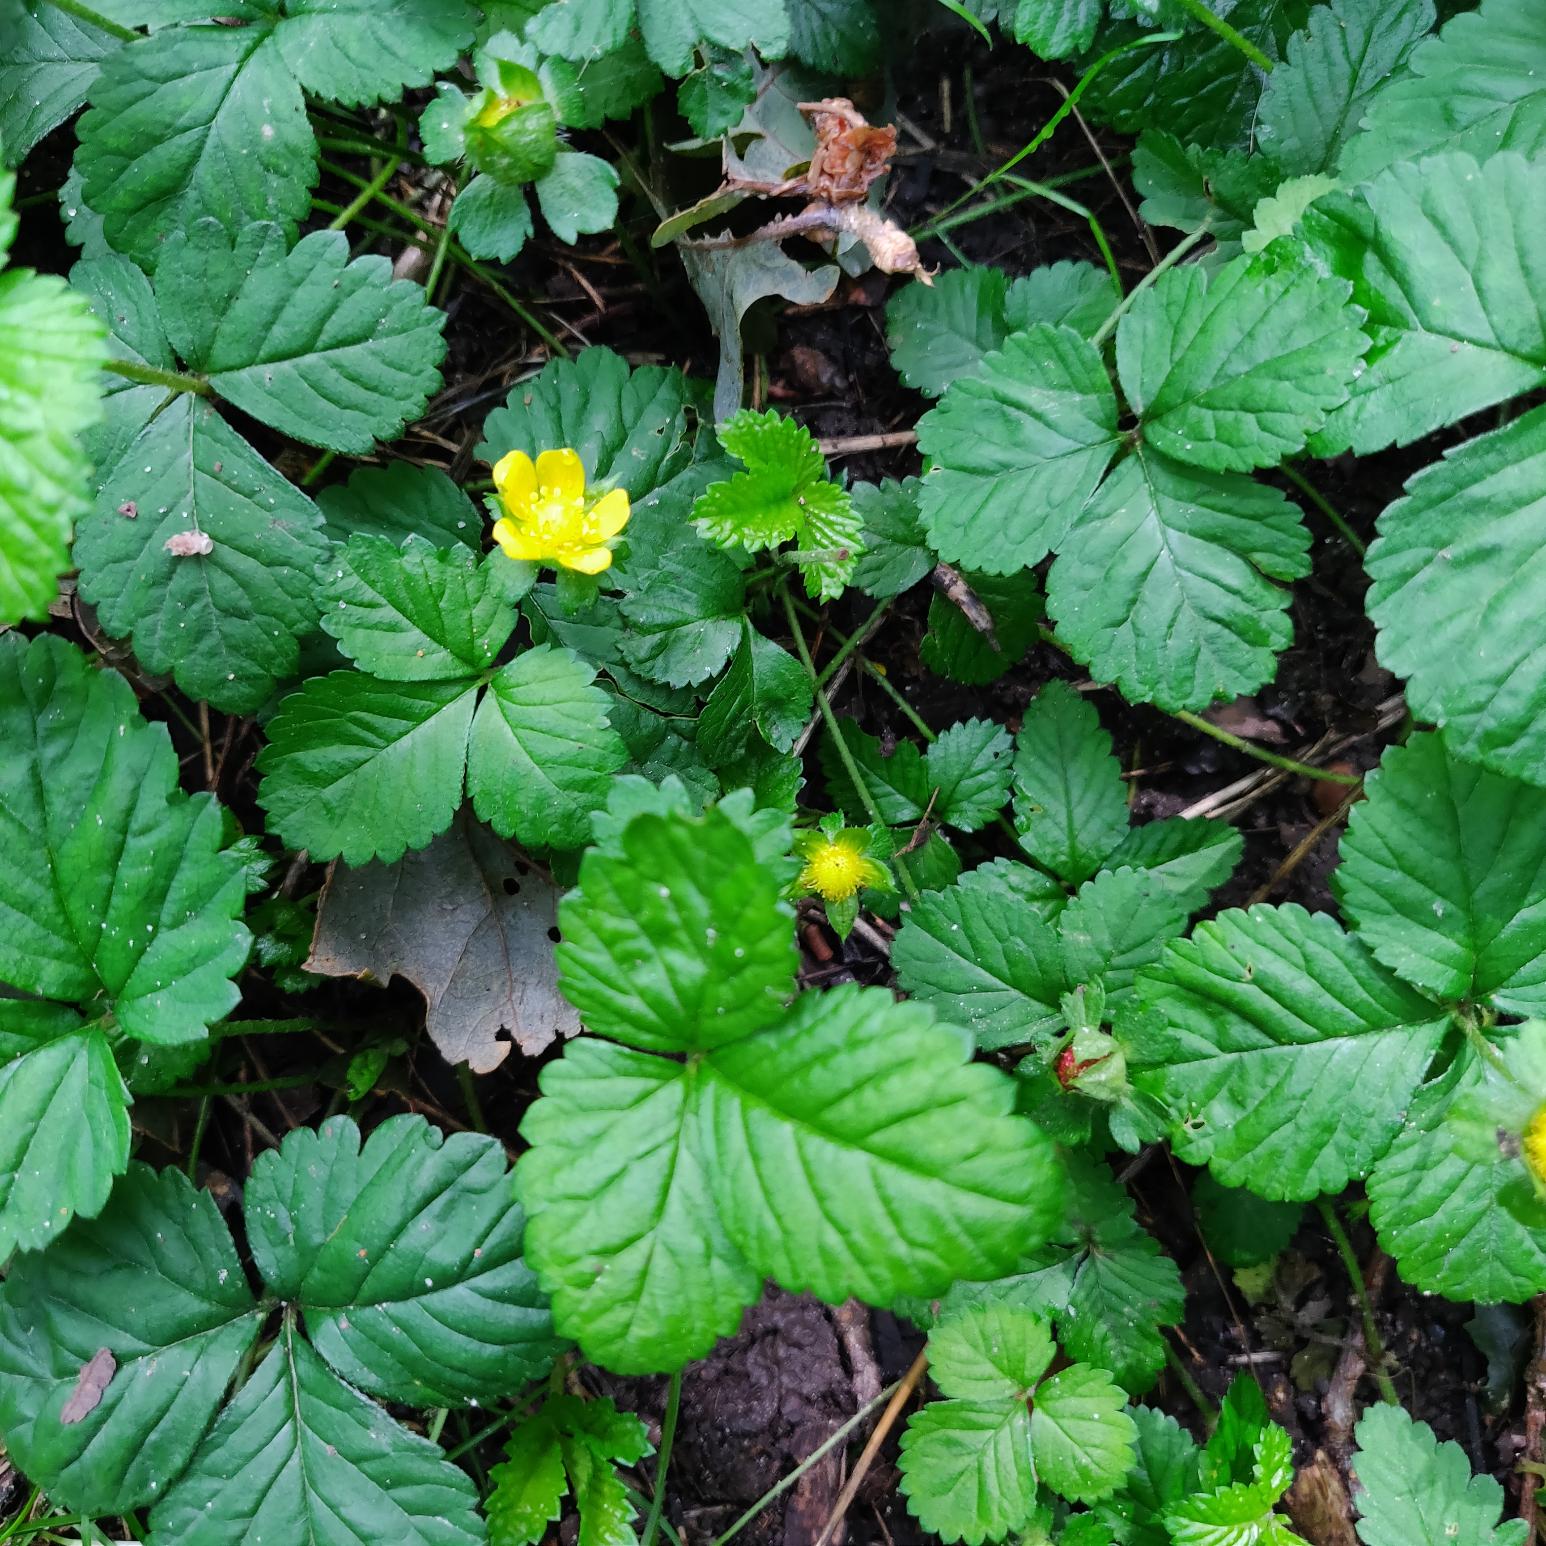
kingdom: Plantae
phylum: Tracheophyta
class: Magnoliopsida
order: Rosales
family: Rosaceae
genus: Potentilla
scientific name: Potentilla indica
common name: Indisk jordbær
